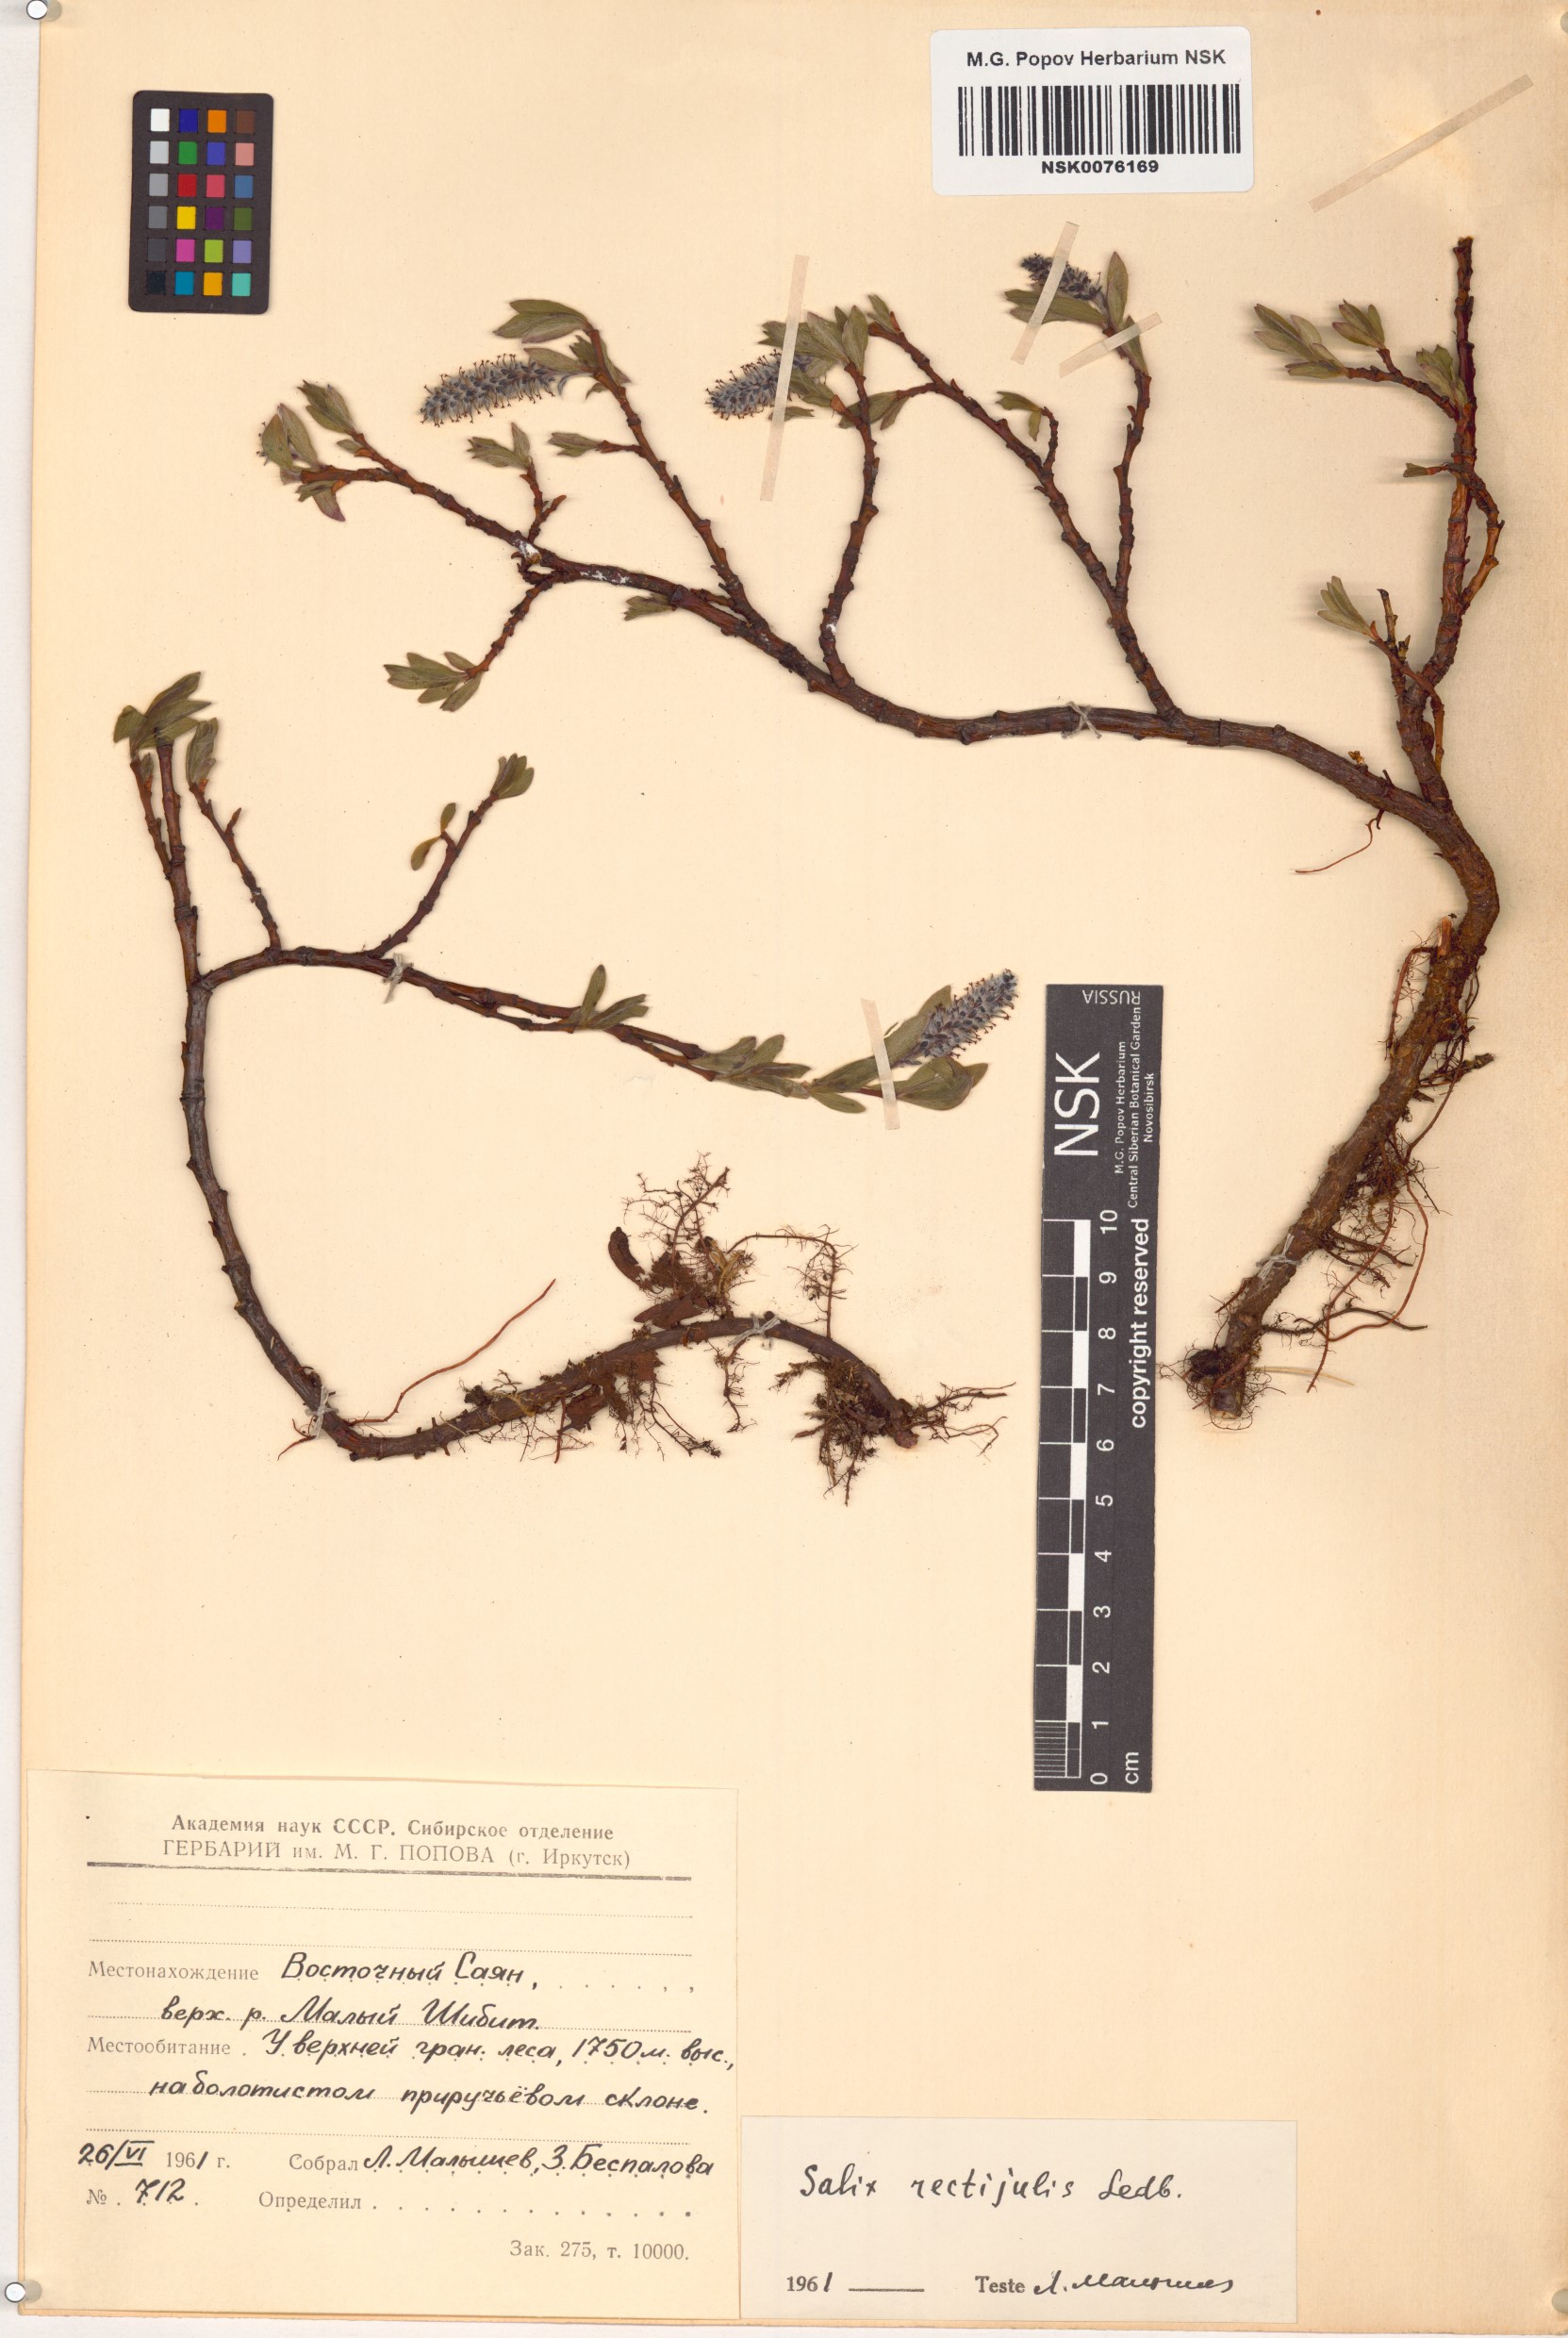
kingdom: Plantae
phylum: Tracheophyta
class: Magnoliopsida
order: Malpighiales
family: Salicaceae
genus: Salix
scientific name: Salix rectijulis
